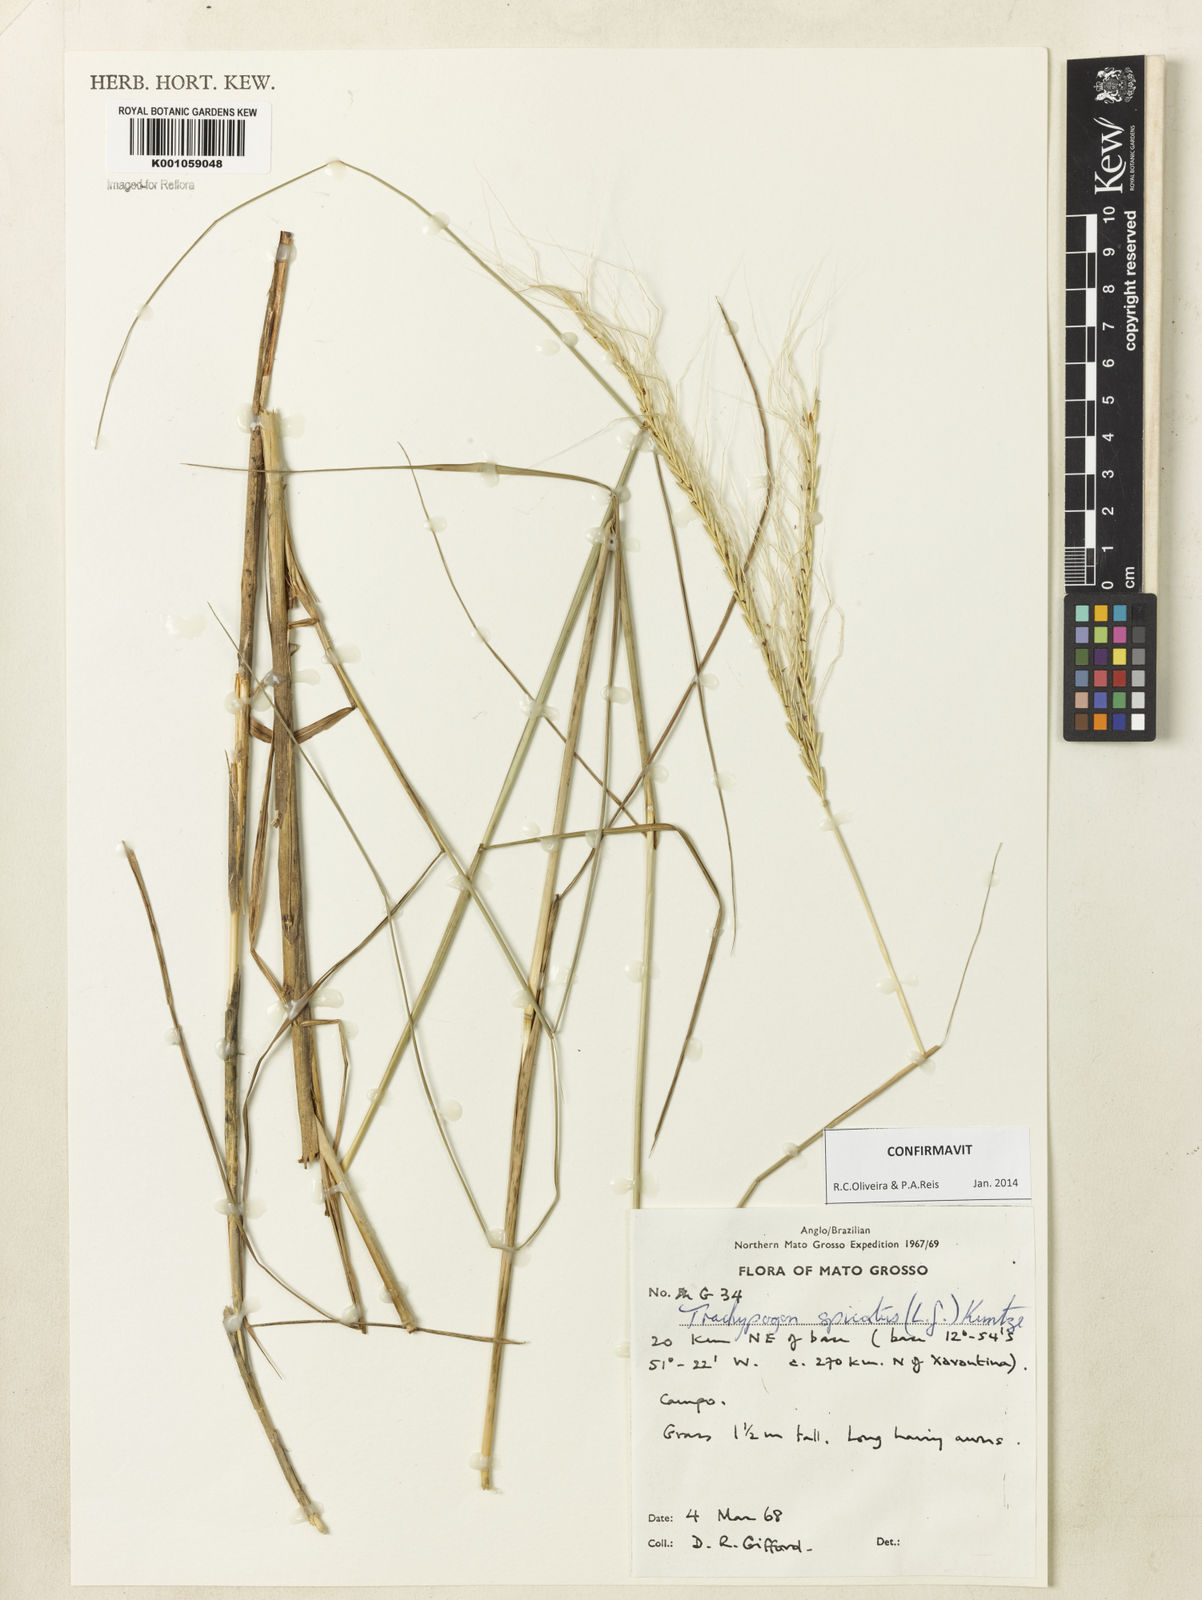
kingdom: Plantae
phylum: Tracheophyta
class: Liliopsida
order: Poales
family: Poaceae
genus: Trachypogon
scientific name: Trachypogon spicatus
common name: Crinkle-awn
